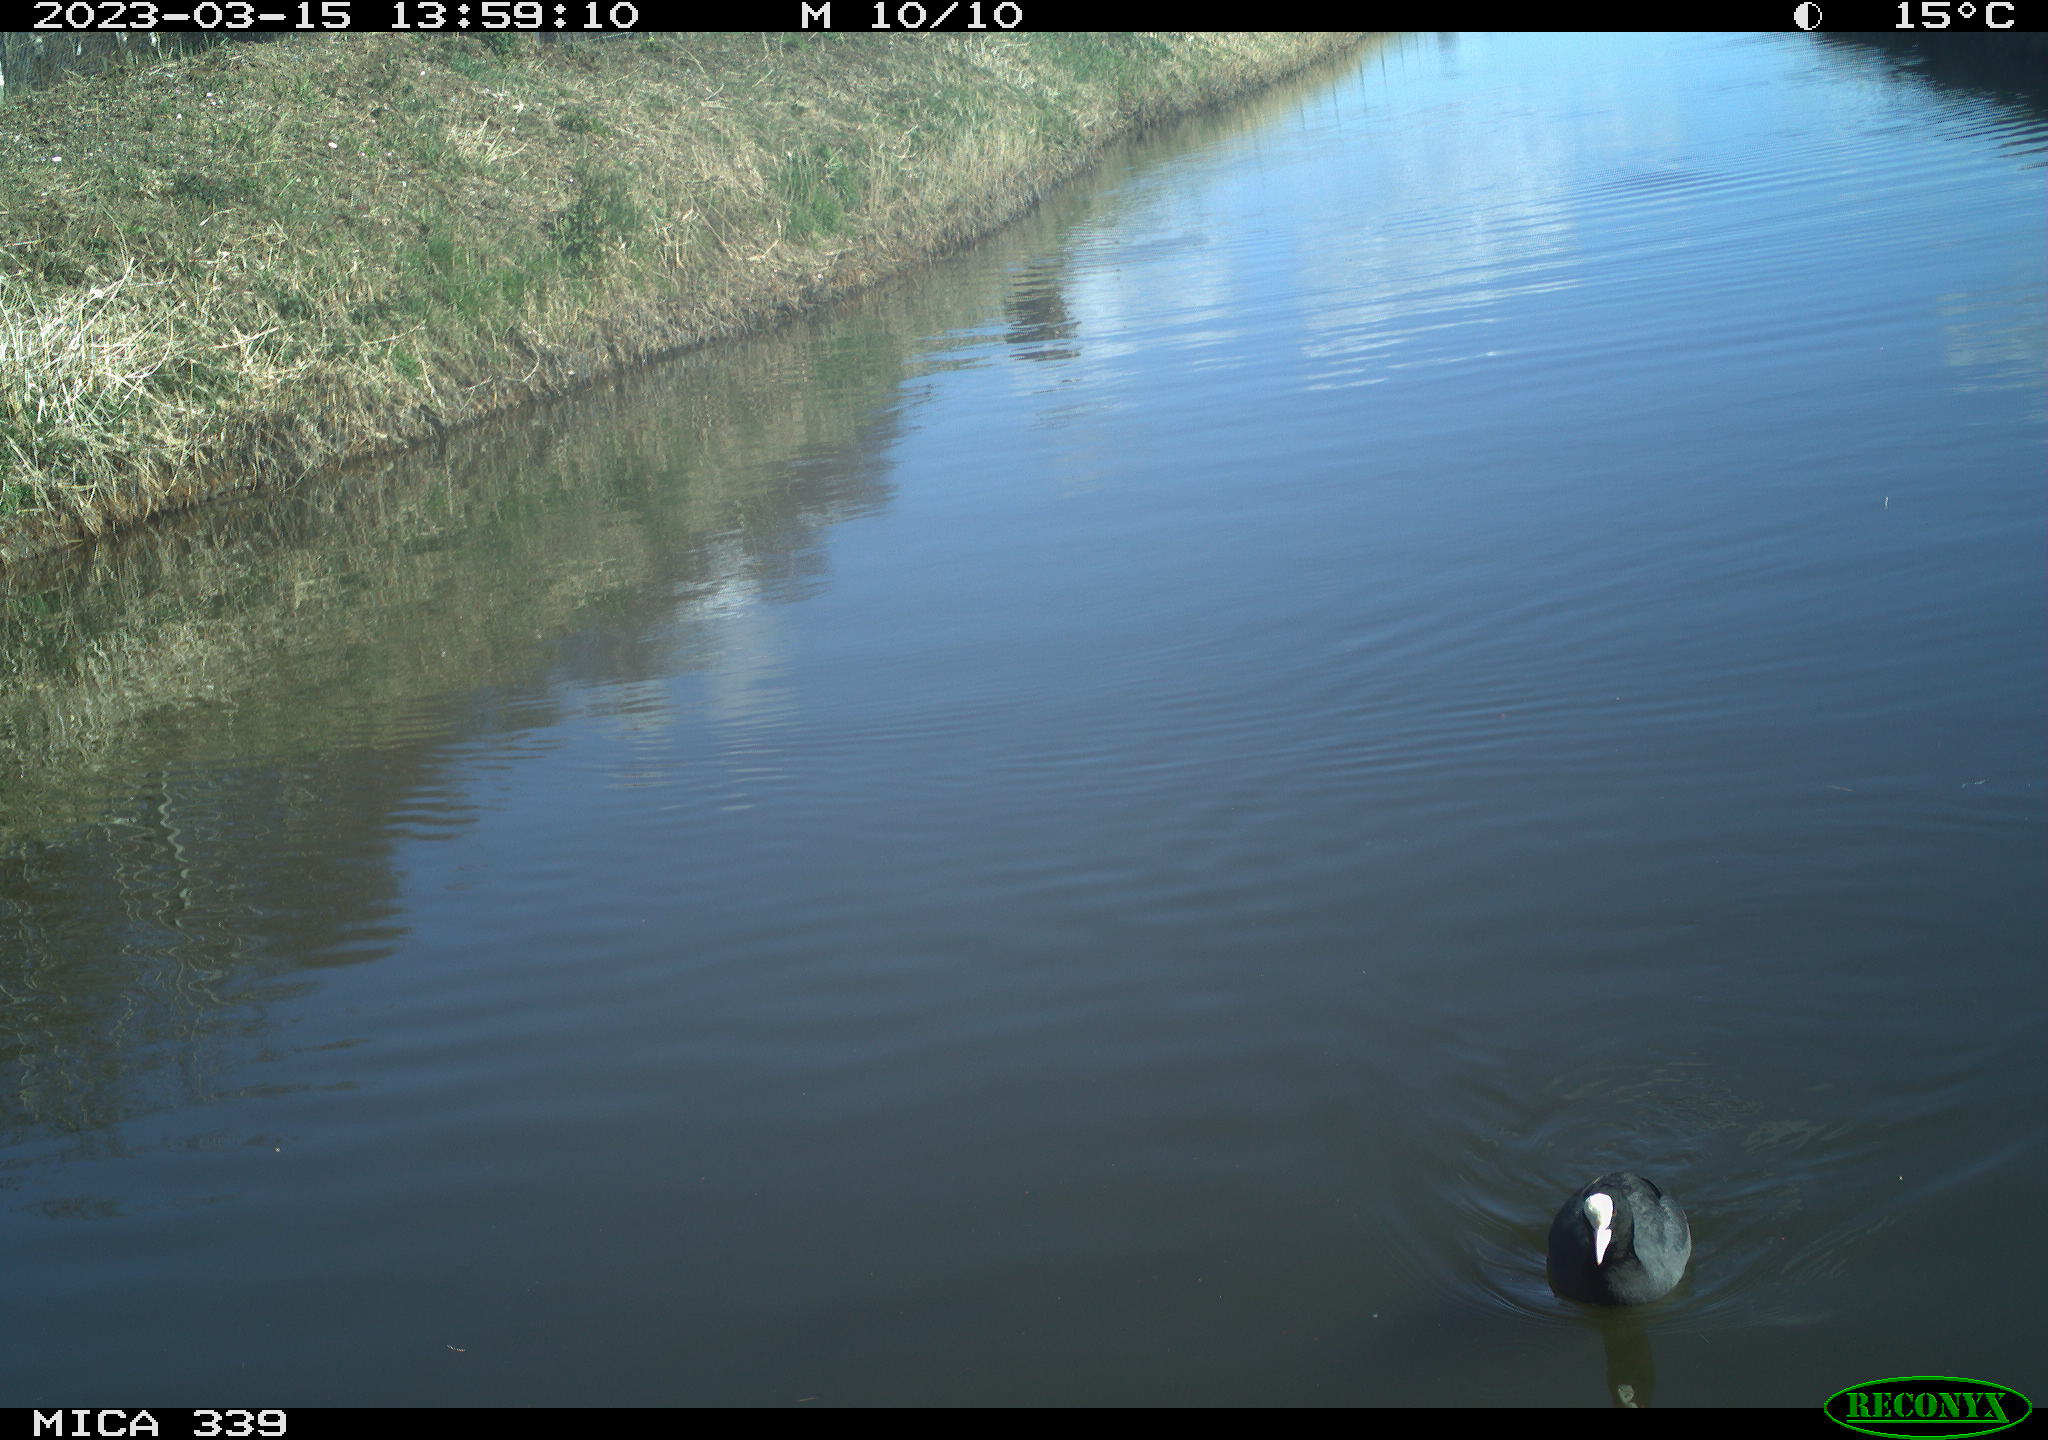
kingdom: Animalia
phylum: Chordata
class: Aves
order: Gruiformes
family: Rallidae
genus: Gallinula
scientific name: Gallinula chloropus
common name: Common moorhen
